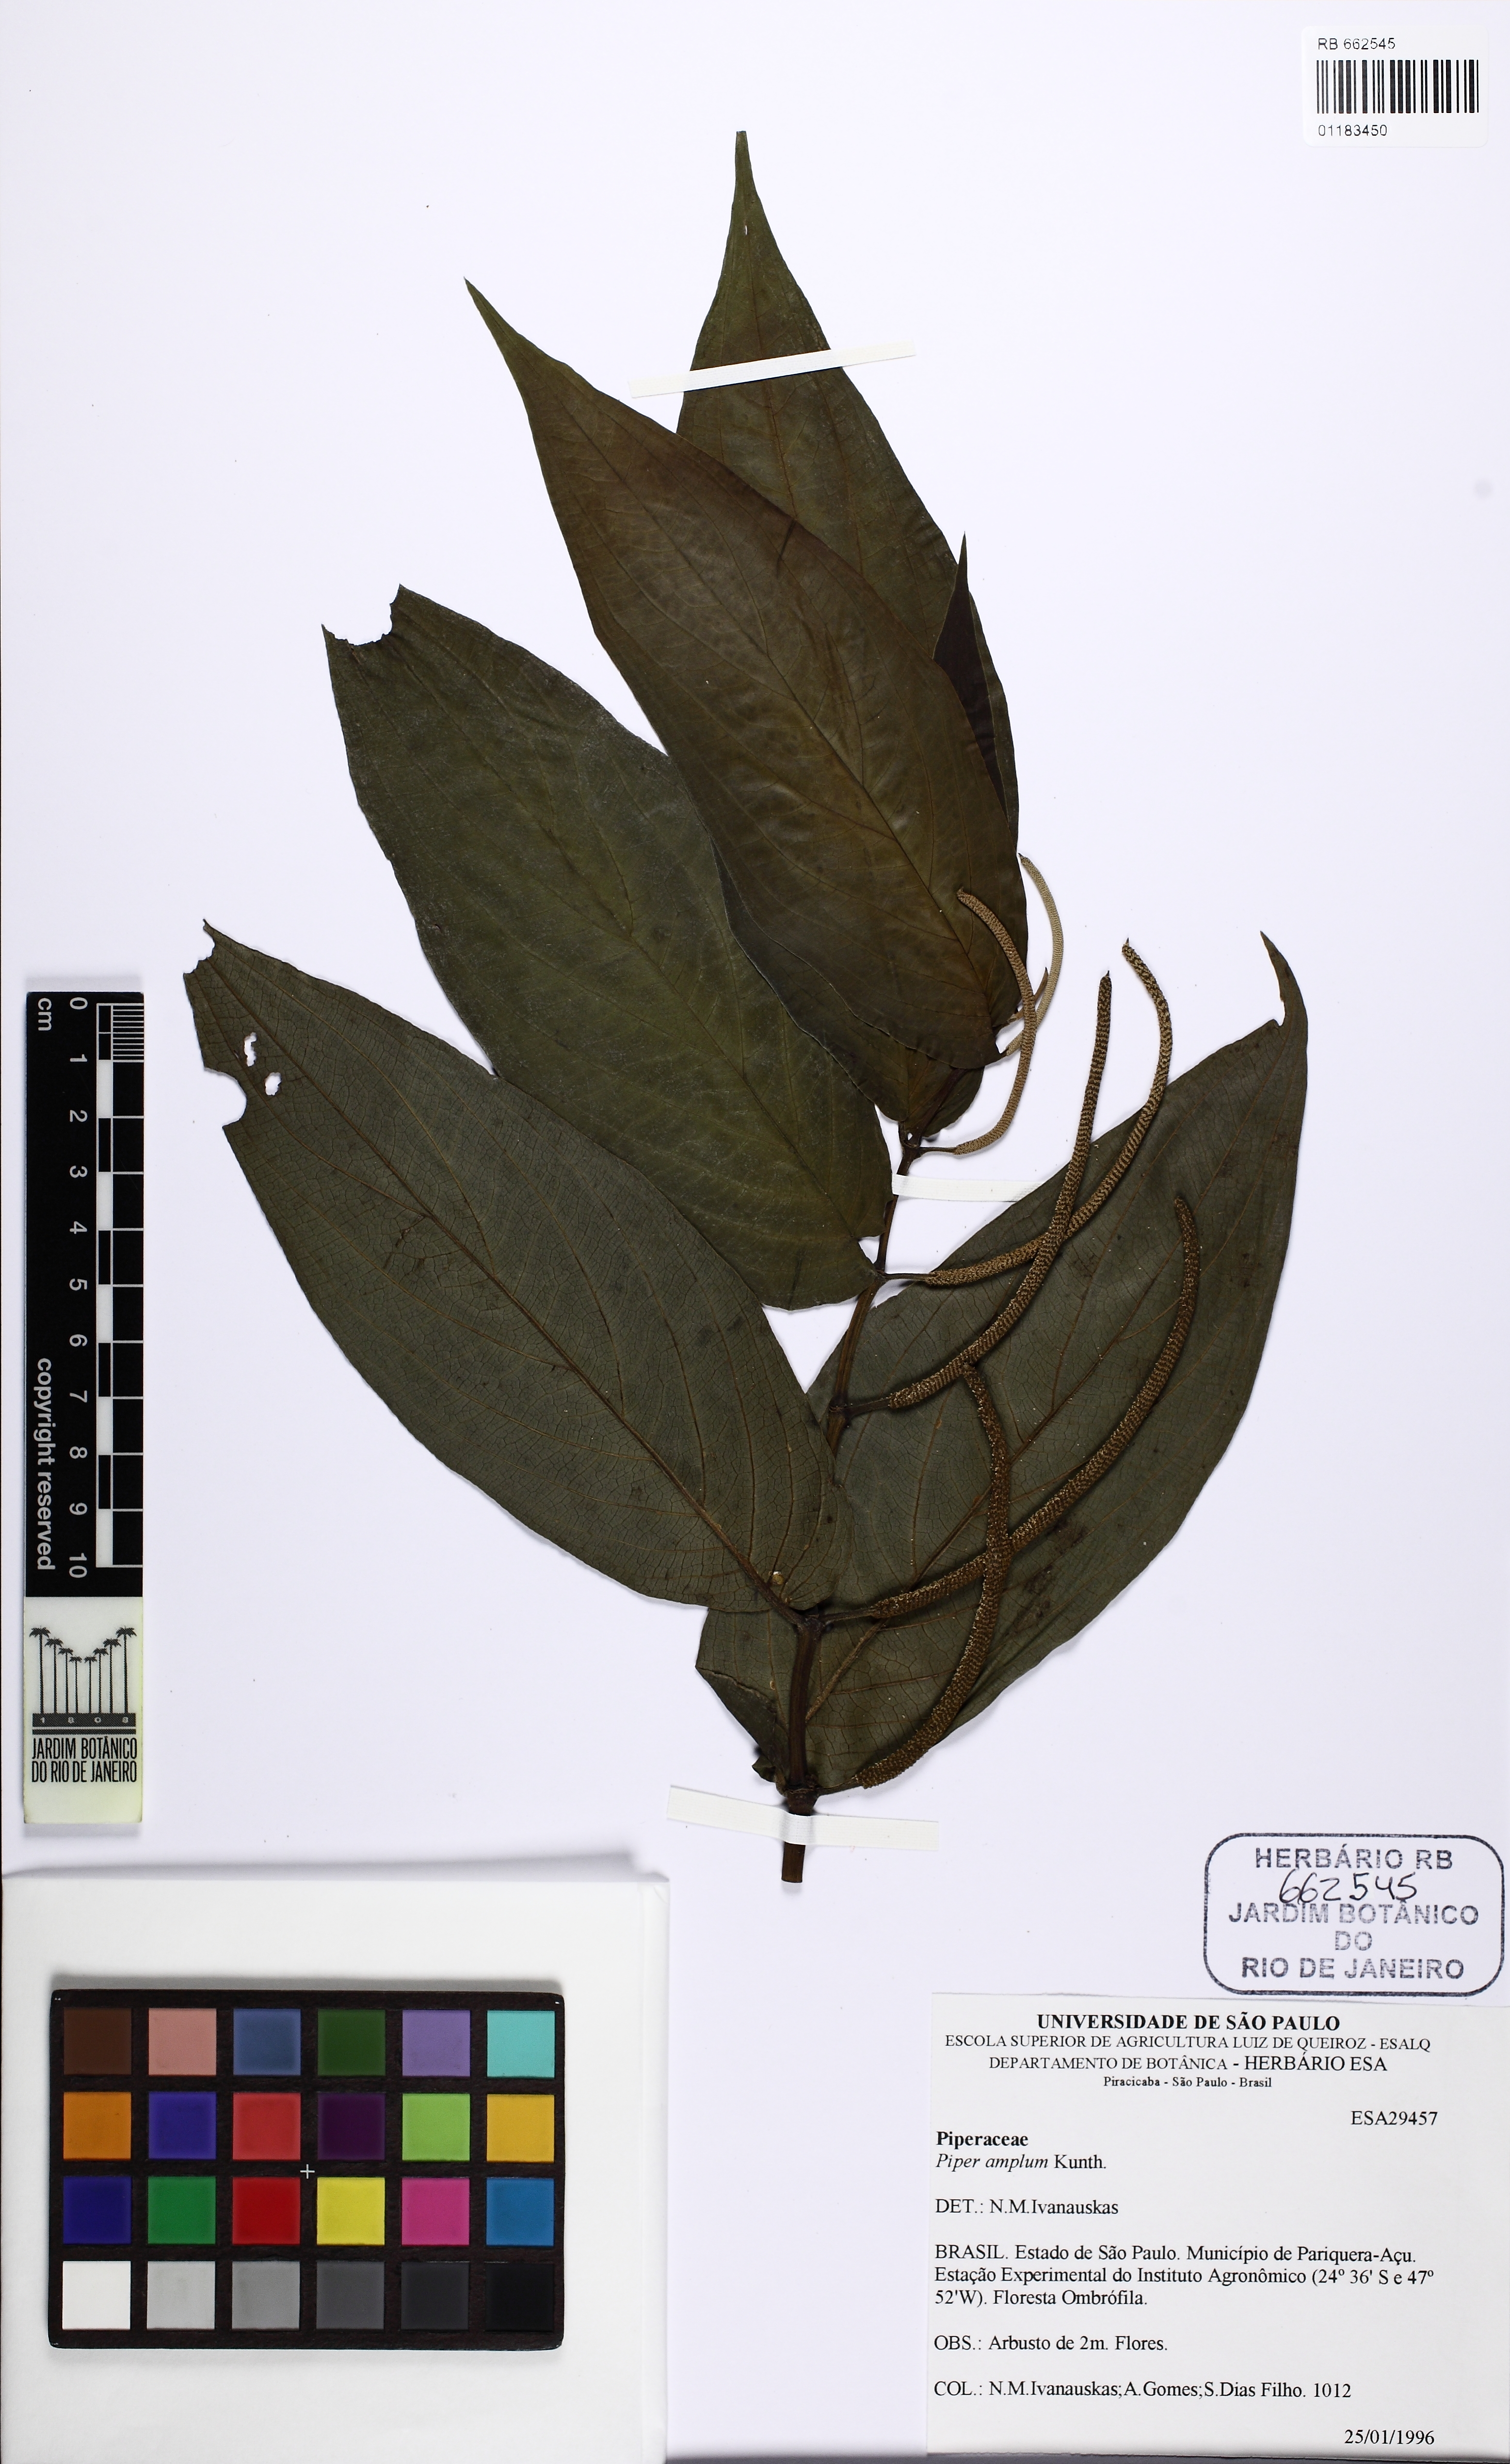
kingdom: Plantae
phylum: Tracheophyta
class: Magnoliopsida
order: Piperales
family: Piperaceae
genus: Piper
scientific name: Piper aduncum
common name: Spiked pepper
